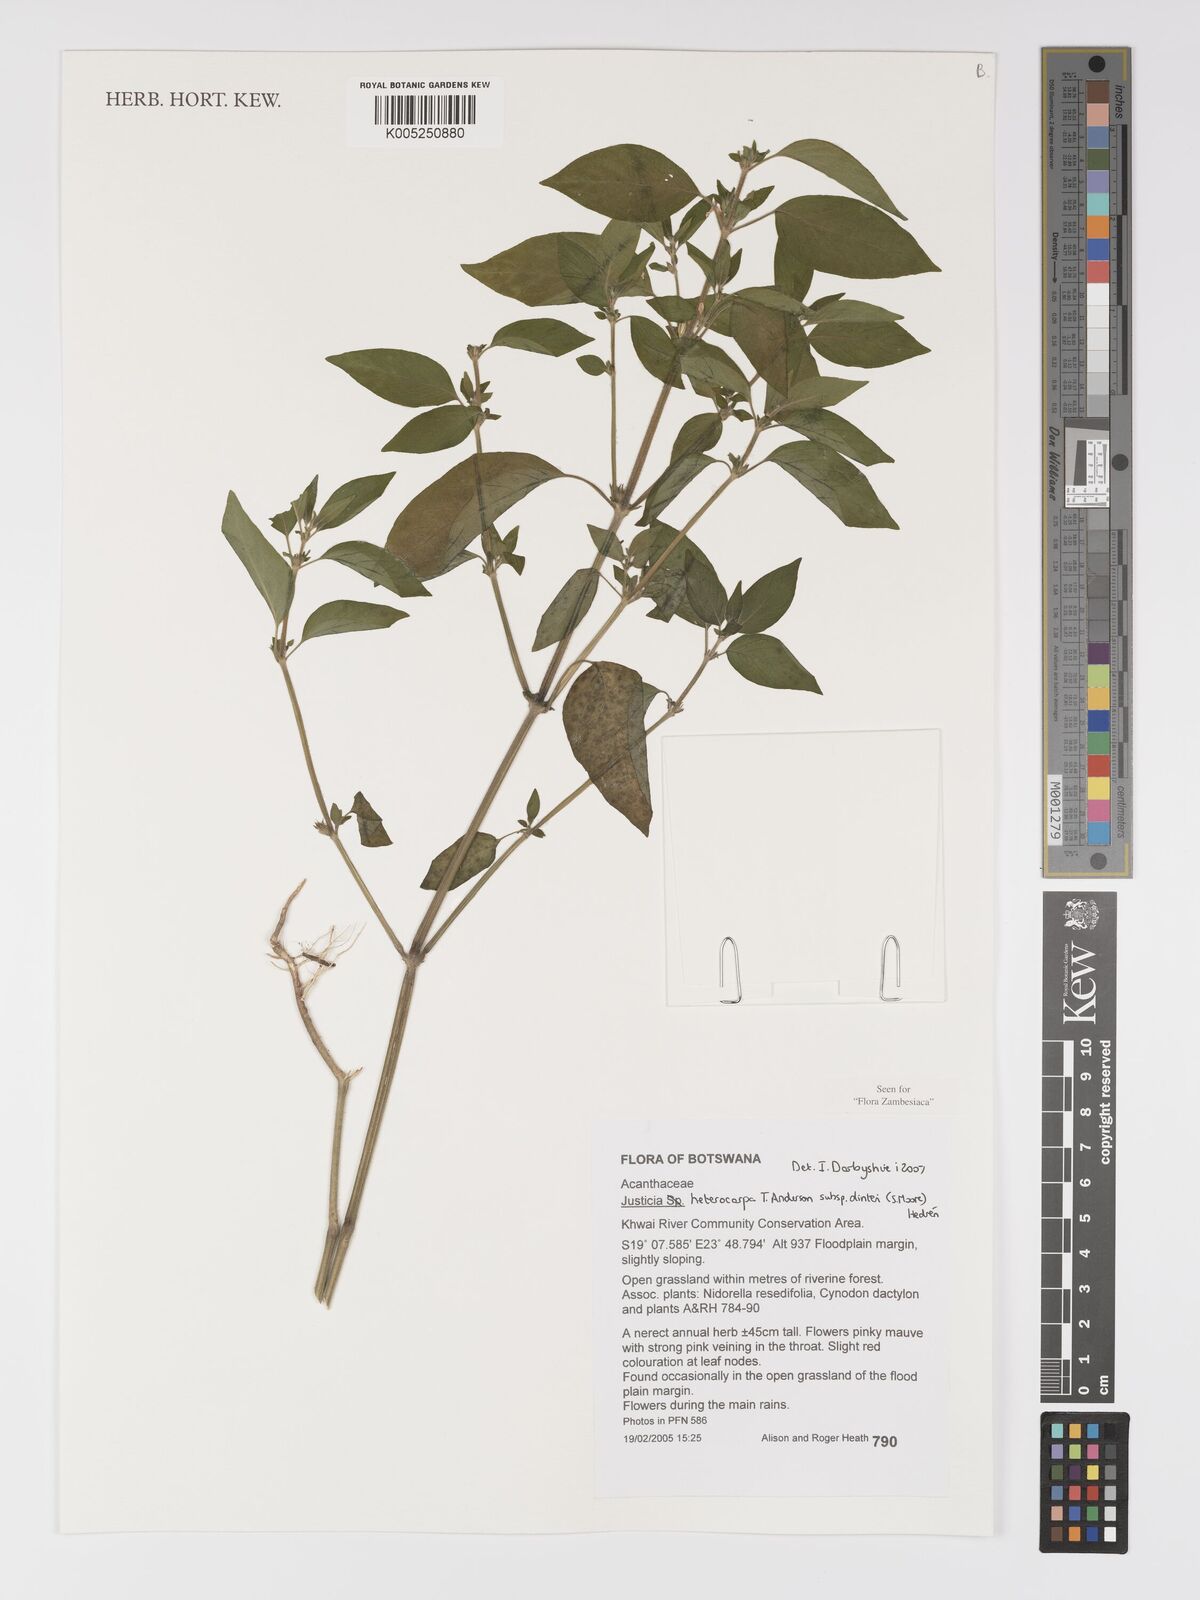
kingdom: Plantae
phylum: Tracheophyta
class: Magnoliopsida
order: Lamiales
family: Acanthaceae
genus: Justicia
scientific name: Justicia heterocarpa
